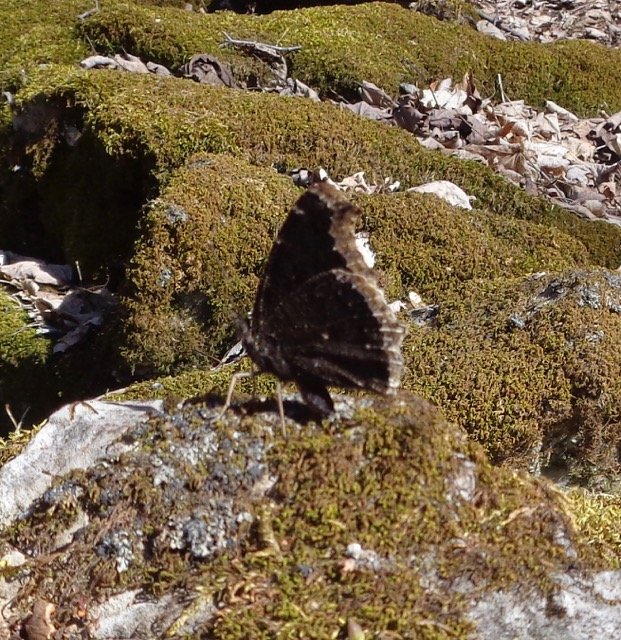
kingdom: Animalia
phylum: Arthropoda
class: Insecta
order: Lepidoptera
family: Nymphalidae
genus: Nymphalis
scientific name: Nymphalis antiopa
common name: Mourning Cloak
